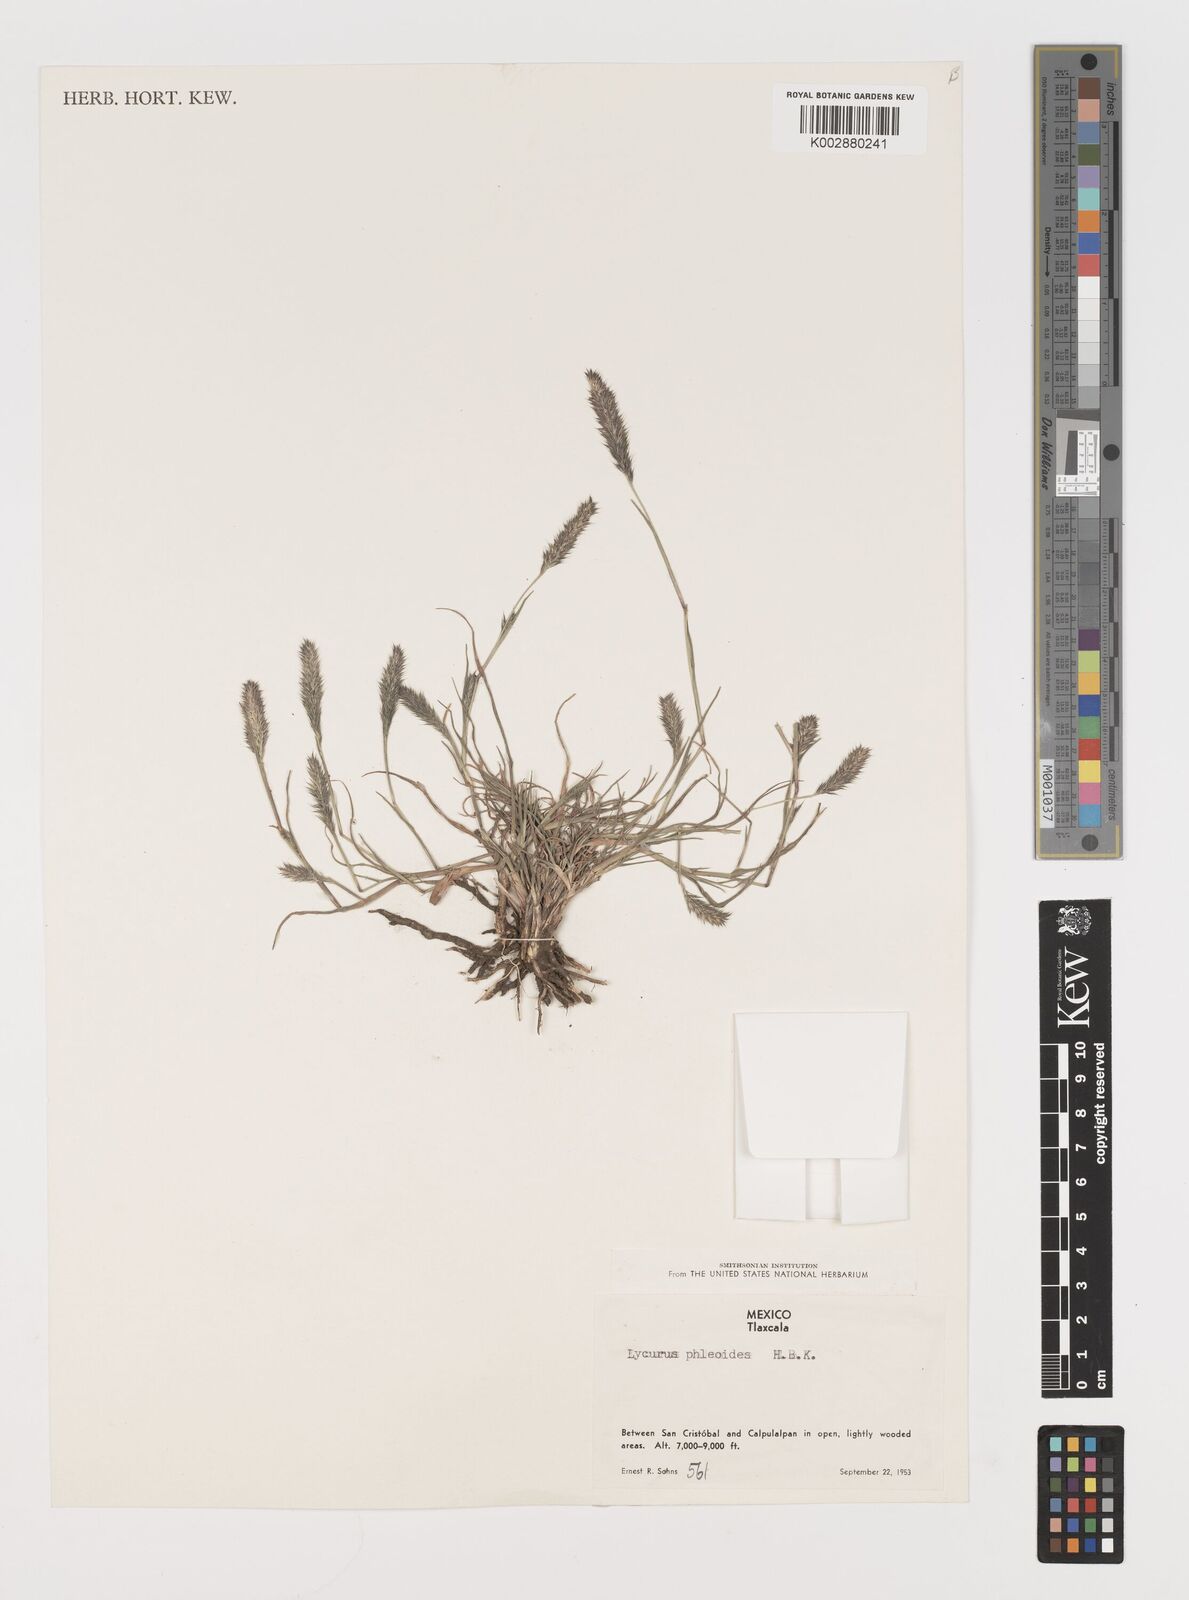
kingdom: Plantae
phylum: Tracheophyta
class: Liliopsida
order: Poales
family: Poaceae
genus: Muhlenbergia
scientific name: Muhlenbergia phalaroides
